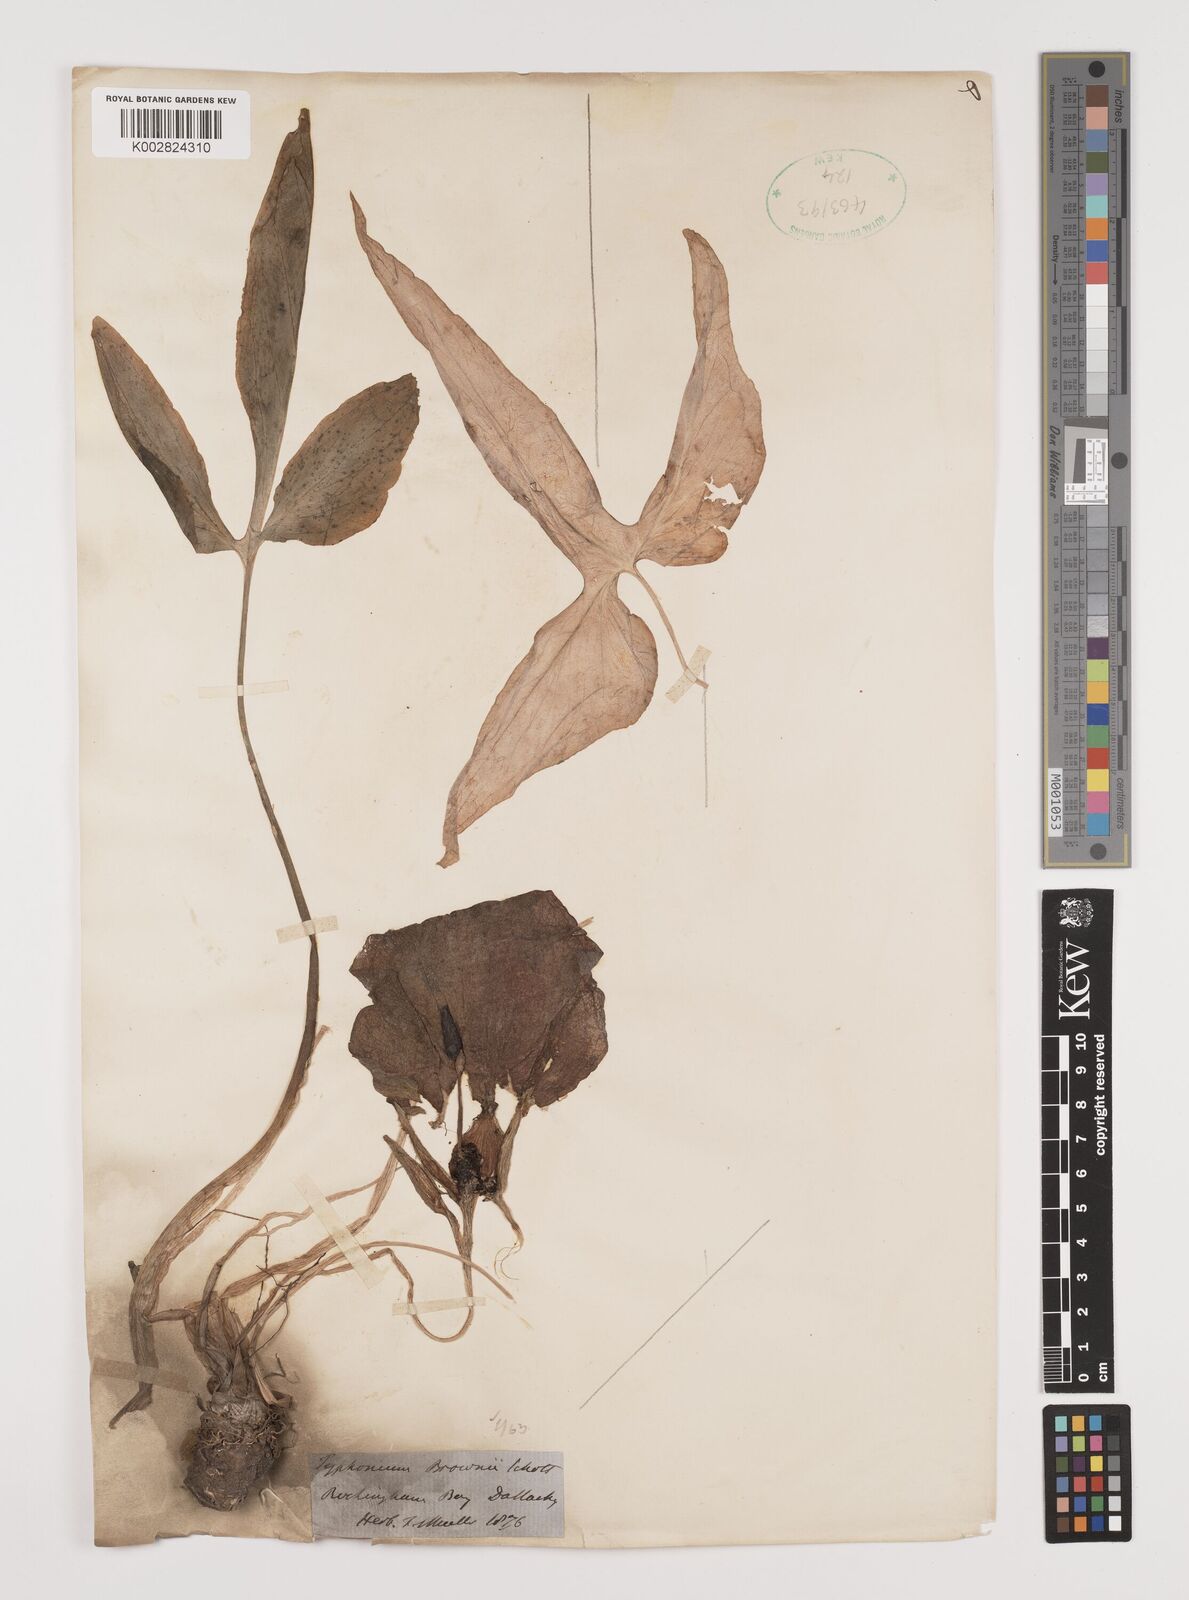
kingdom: Plantae
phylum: Tracheophyta
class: Liliopsida
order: Alismatales
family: Araceae
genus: Typhonium
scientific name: Typhonium brownii
